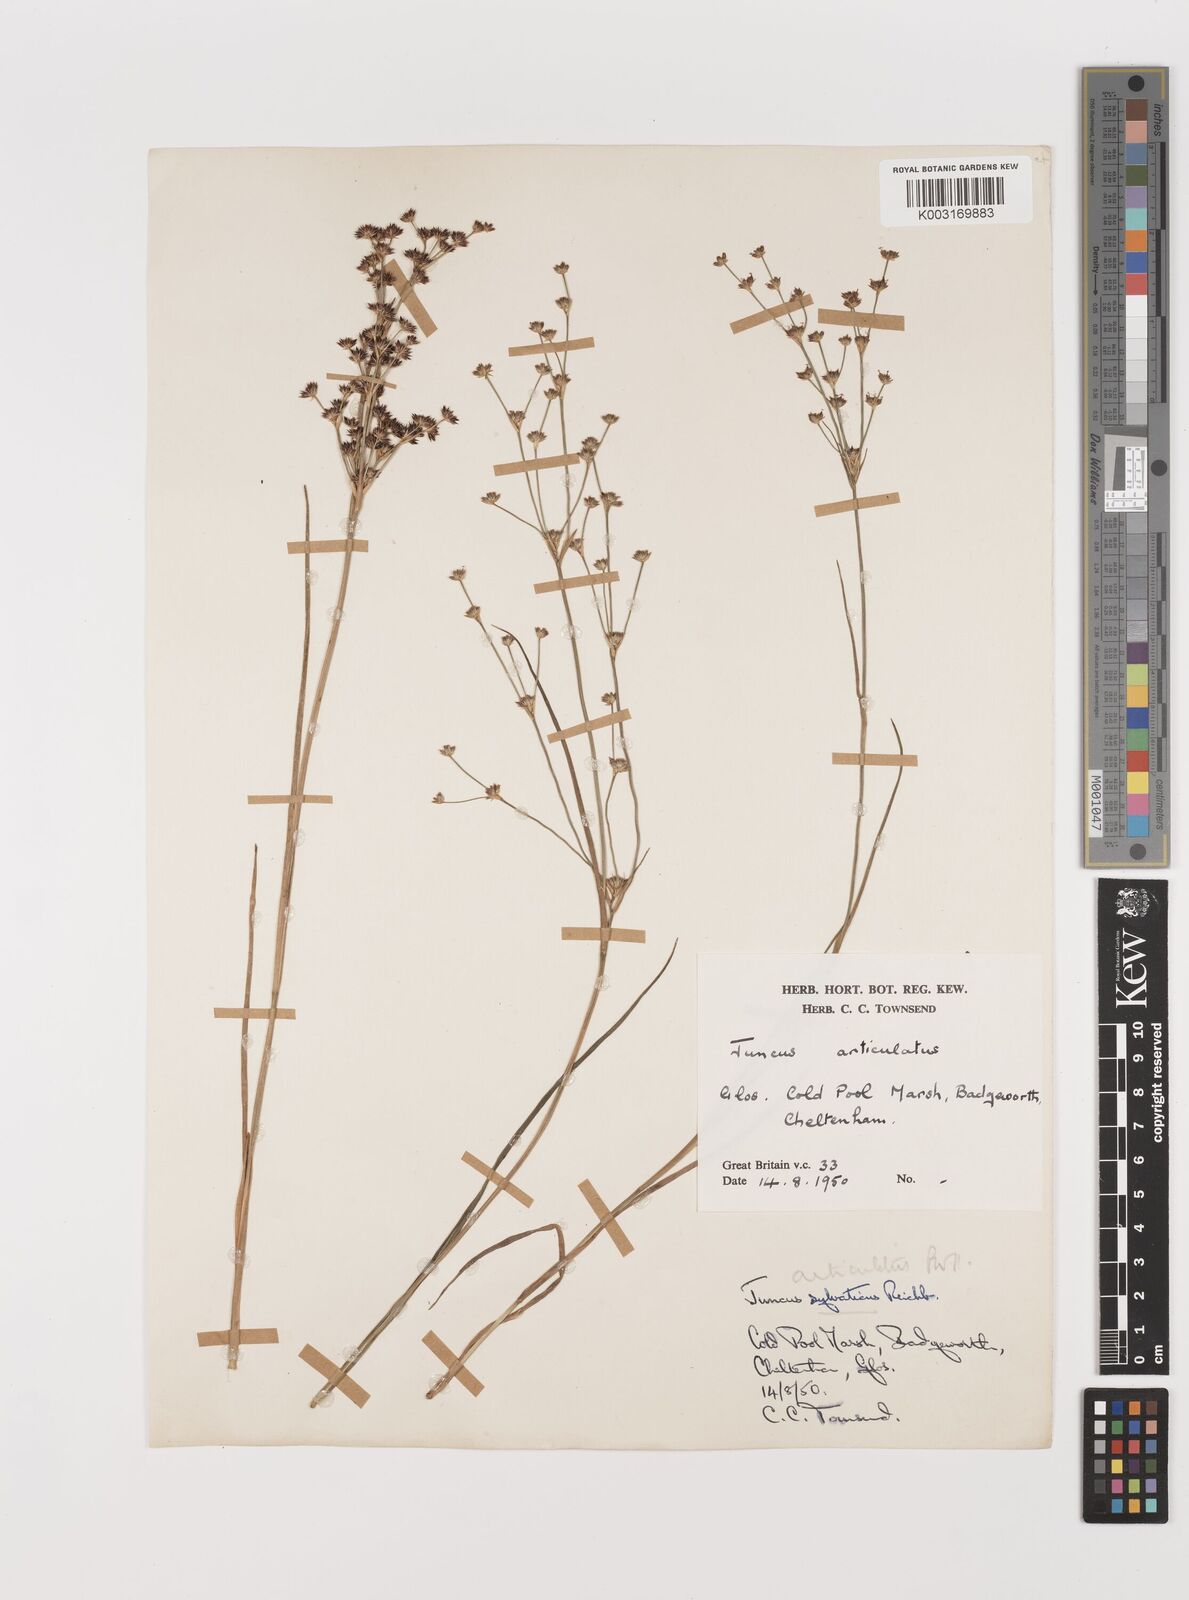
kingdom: Plantae
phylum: Tracheophyta
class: Liliopsida
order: Poales
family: Juncaceae
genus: Juncus
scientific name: Juncus articulatus
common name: Jointed rush
